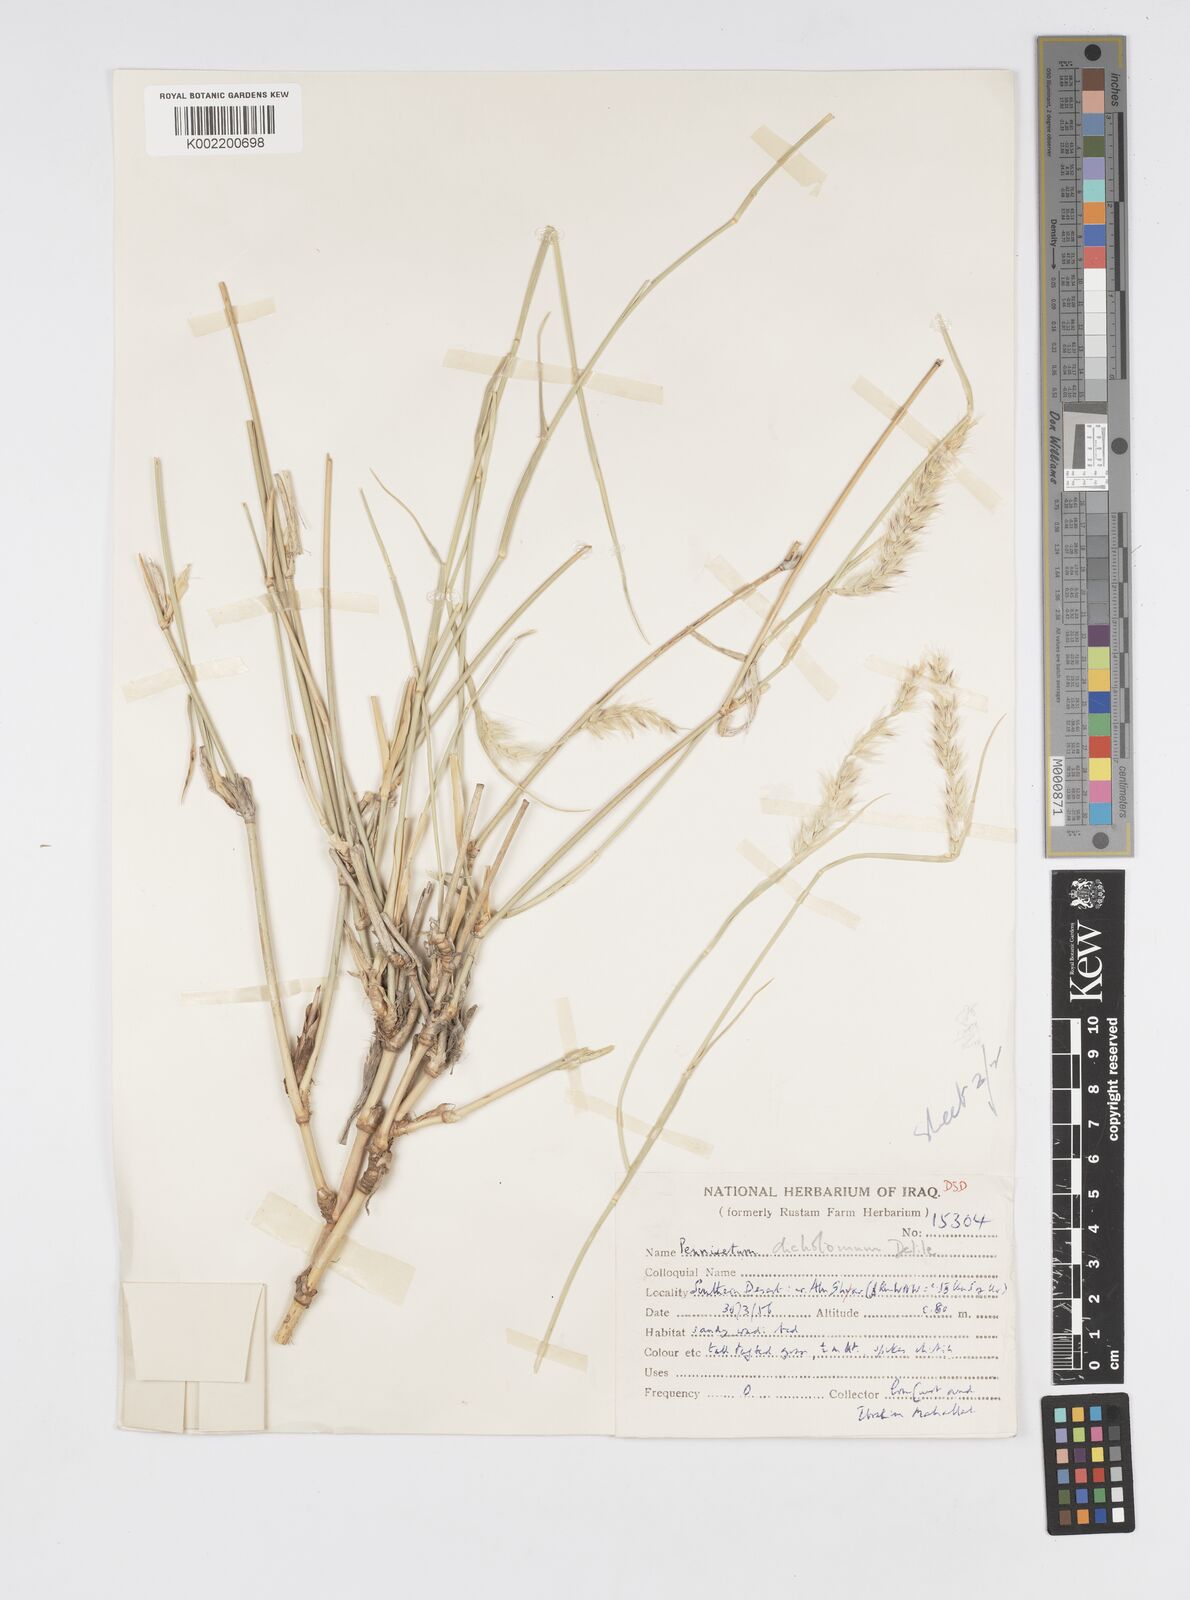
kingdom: Plantae
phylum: Tracheophyta
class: Liliopsida
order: Poales
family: Poaceae
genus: Cenchrus
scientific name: Cenchrus divisus
